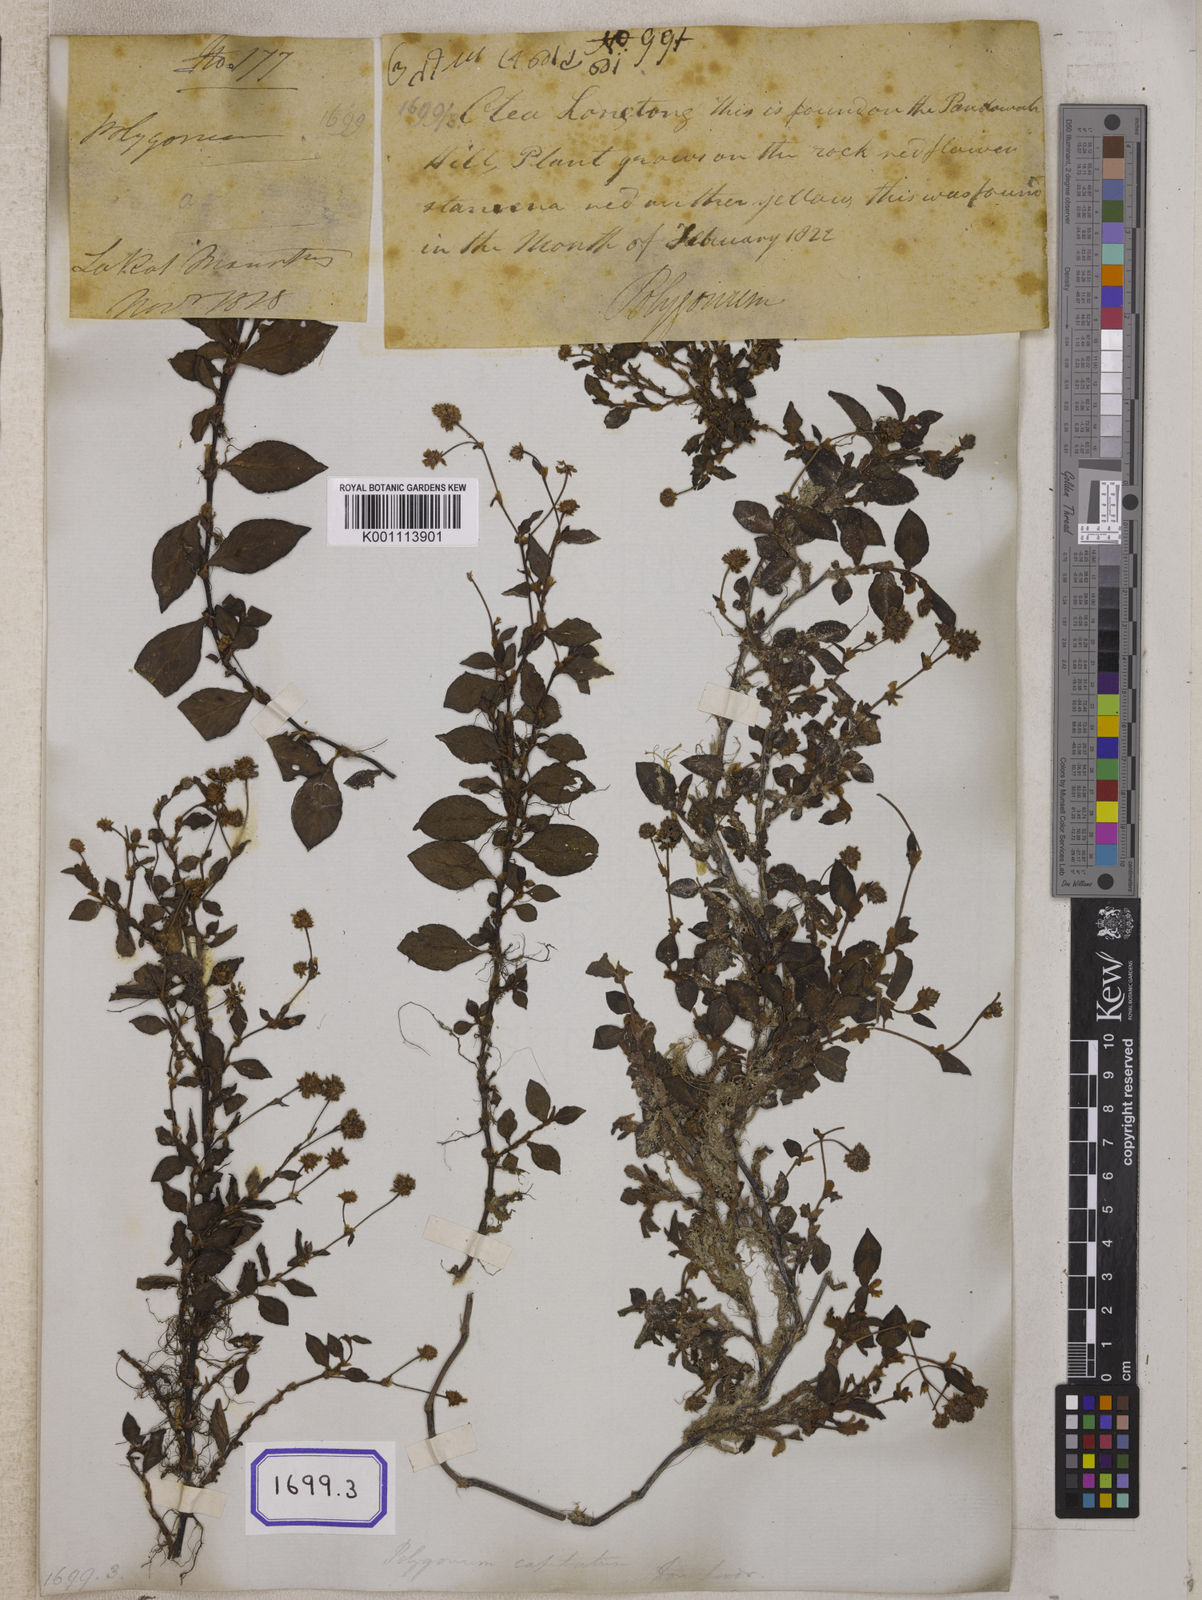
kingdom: Plantae
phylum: Tracheophyta
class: Magnoliopsida
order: Caryophyllales
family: Polygonaceae
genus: Polygonum
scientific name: Polygonum
